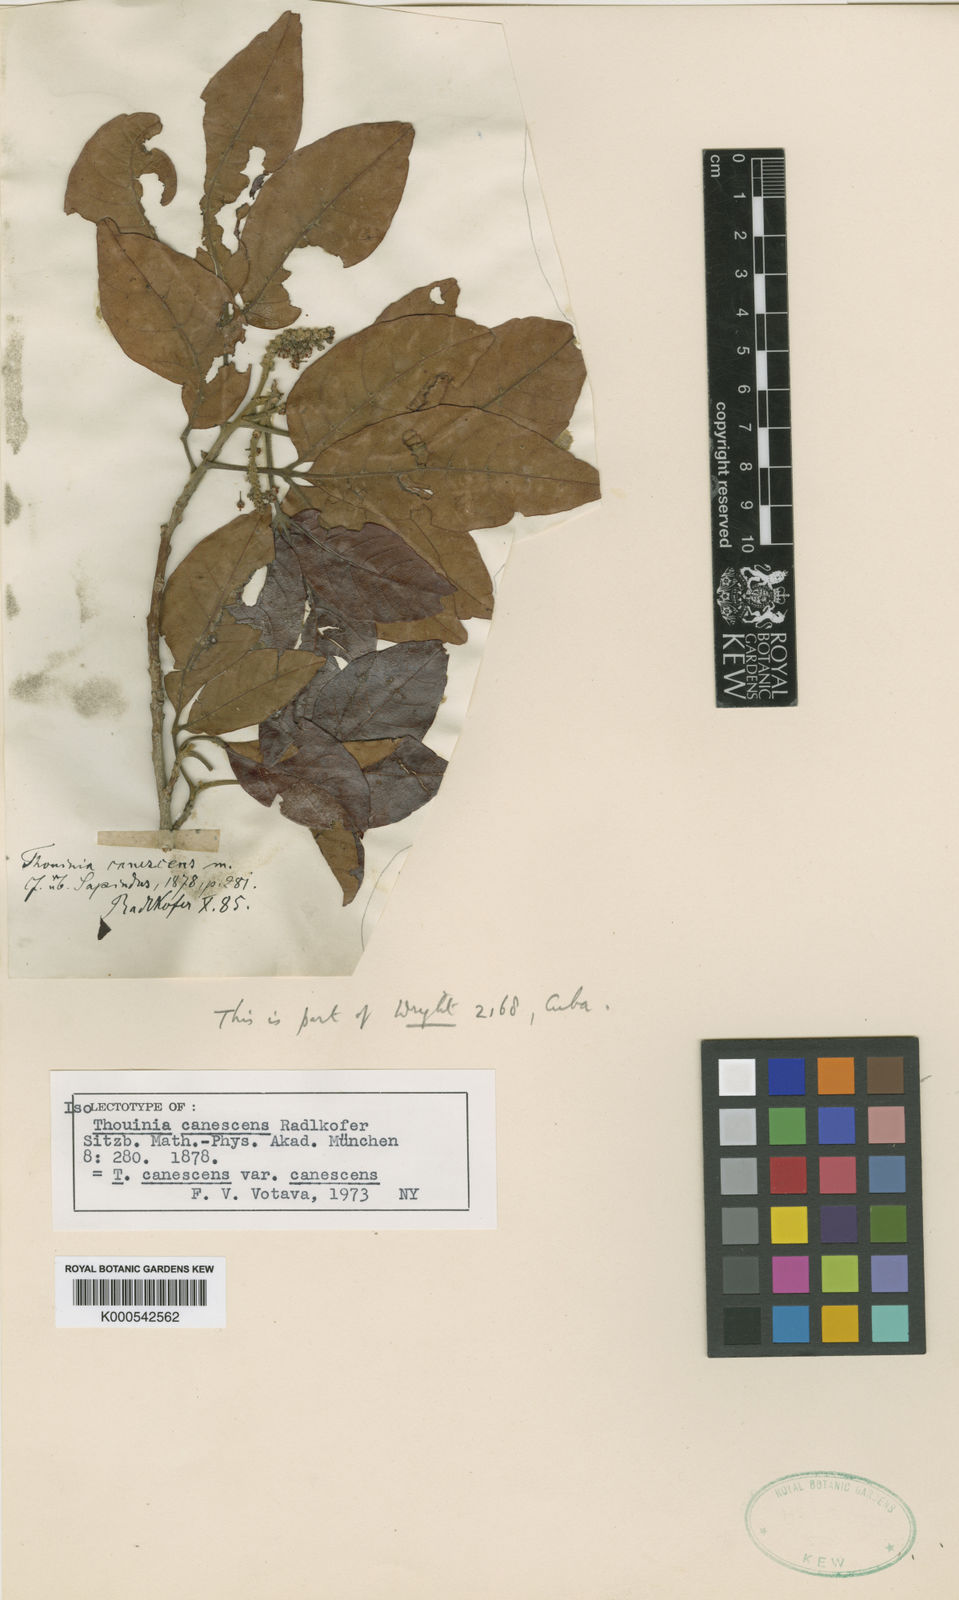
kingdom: Plantae
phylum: Tracheophyta
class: Magnoliopsida
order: Sapindales
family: Sapindaceae
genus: Thouinia
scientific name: Thouinia canescens
